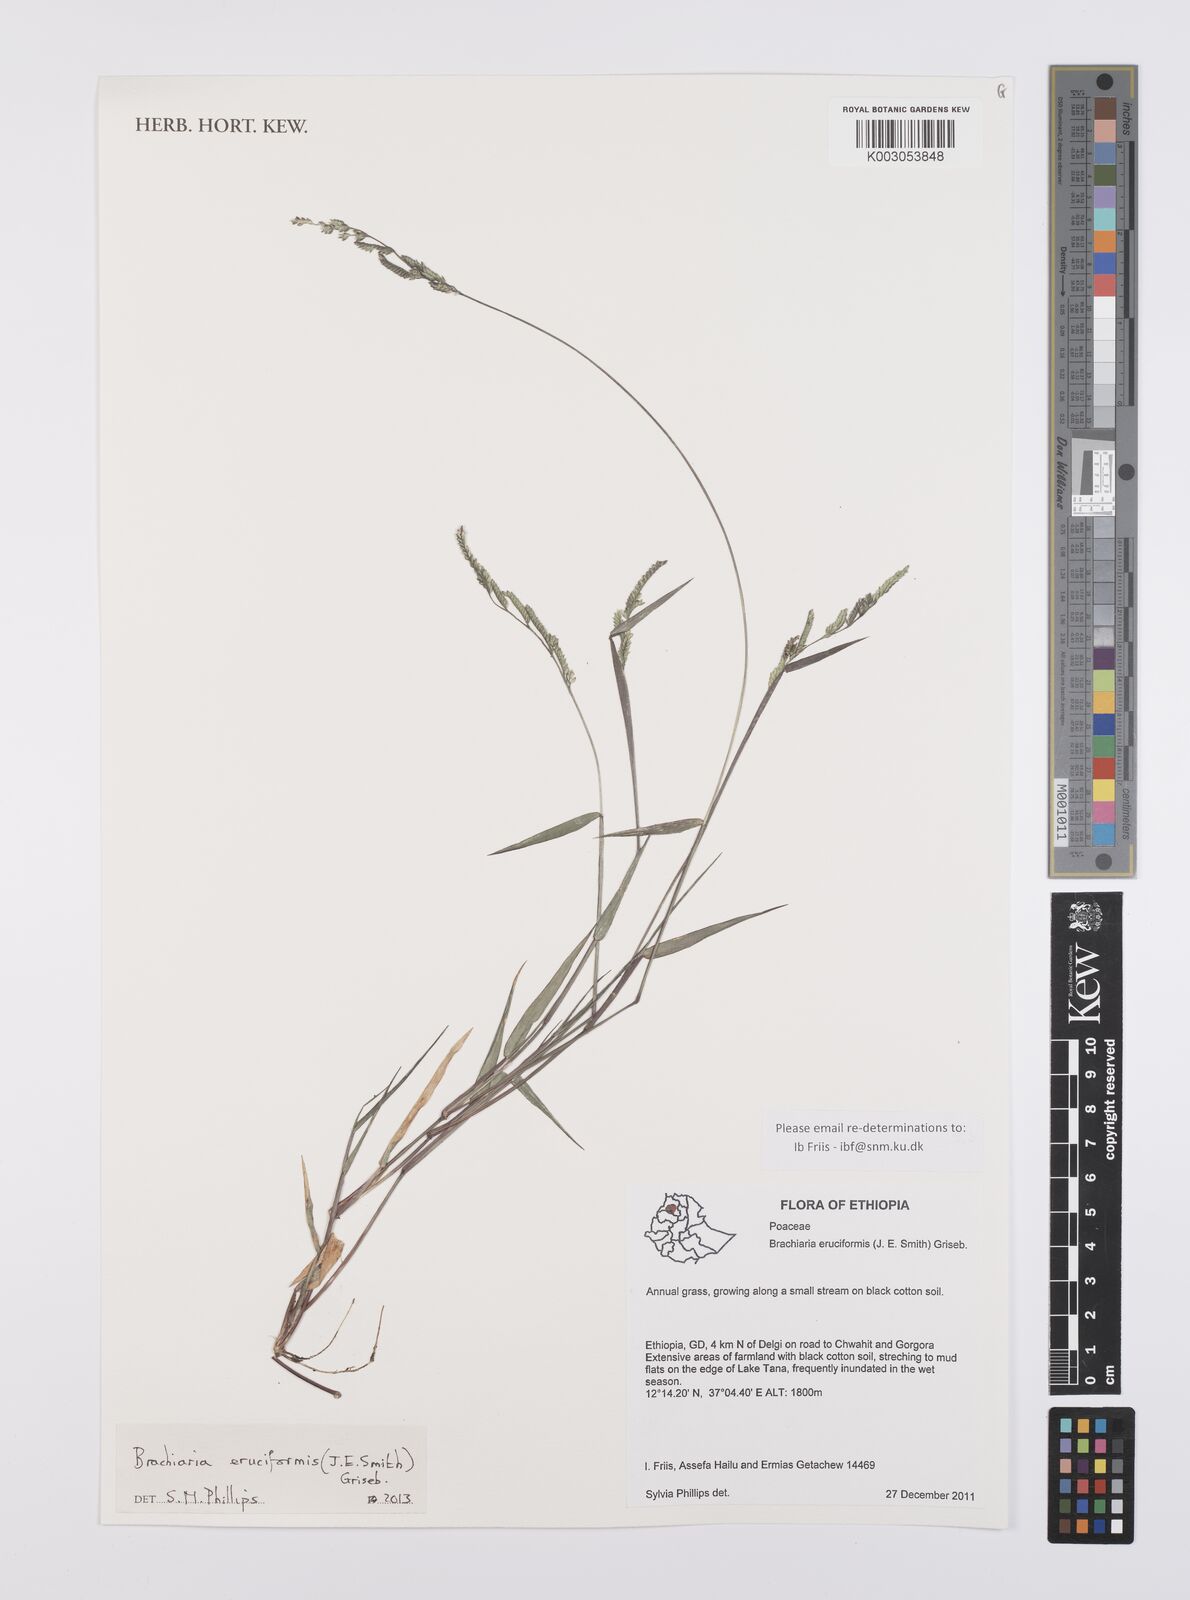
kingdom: Plantae
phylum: Tracheophyta
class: Liliopsida
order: Poales
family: Poaceae
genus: Moorochloa
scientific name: Moorochloa eruciformis
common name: Sweet signalgrass
